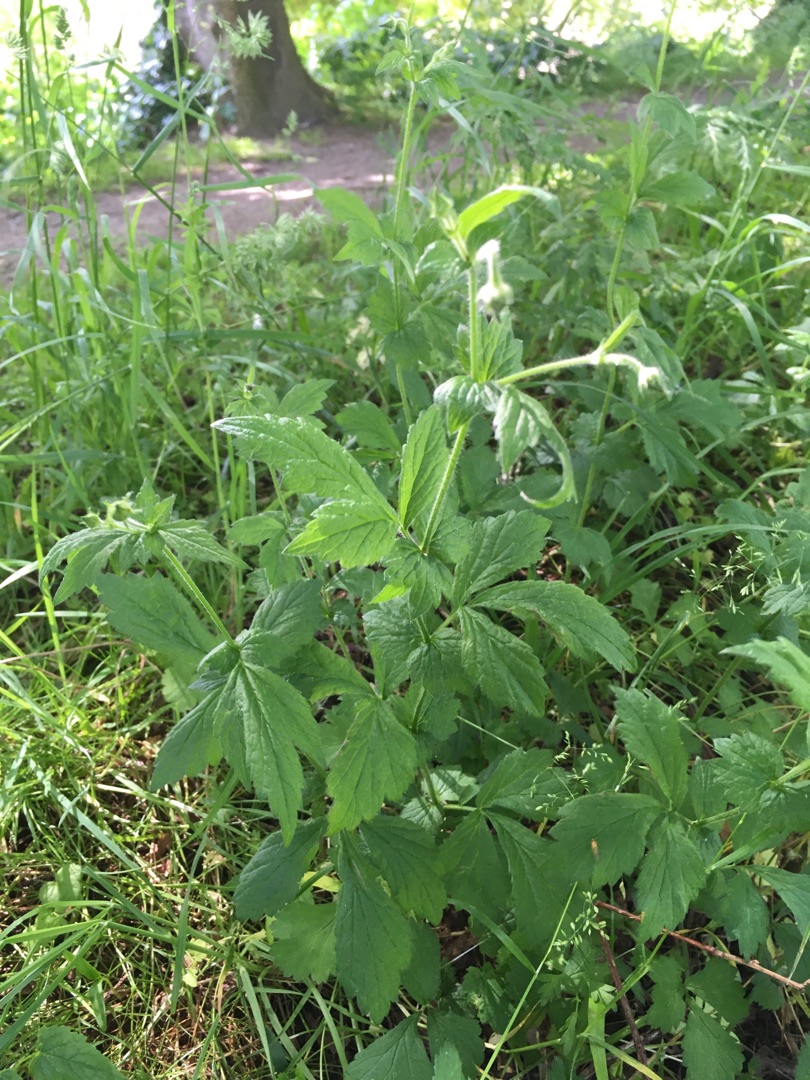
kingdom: Plantae
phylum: Tracheophyta
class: Magnoliopsida
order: Rosales
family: Rosaceae
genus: Geum
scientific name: Geum urbanum
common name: Feber-nellikerod
